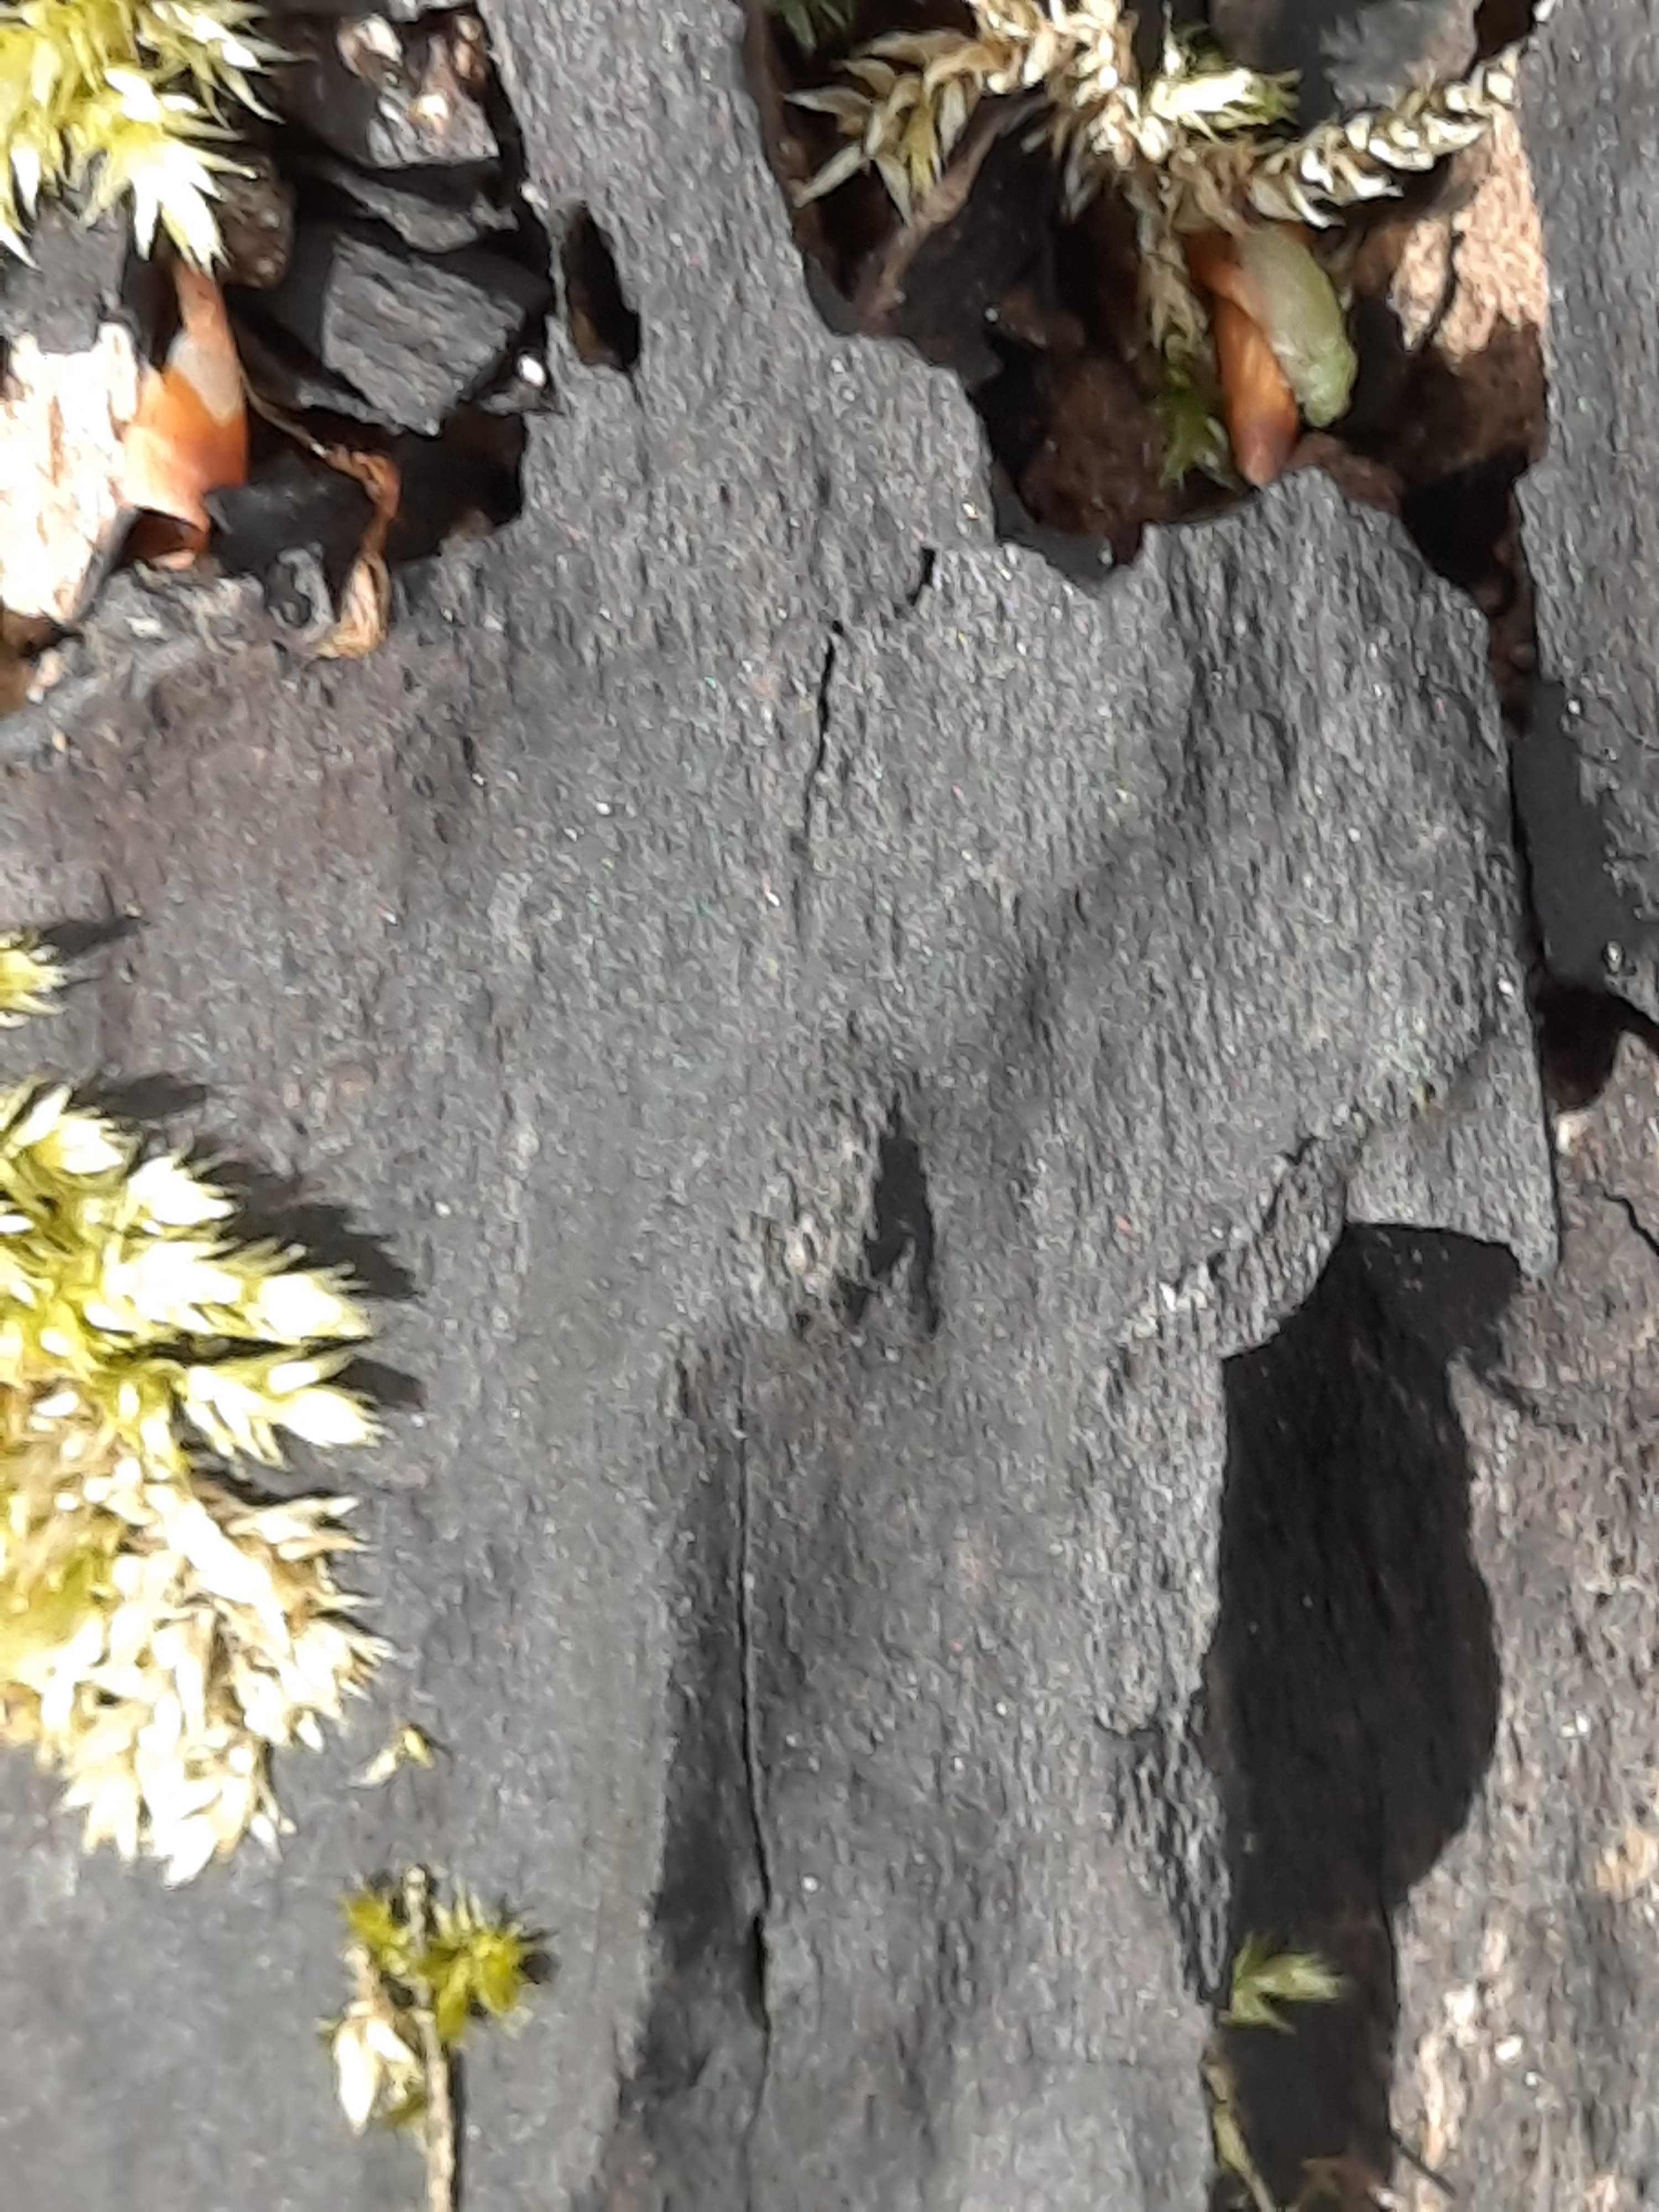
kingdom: Fungi
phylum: Ascomycota
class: Sordariomycetes
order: Xylariales
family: Xylariaceae
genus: Kretzschmaria
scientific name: Kretzschmaria deusta
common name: stor kulsvamp
